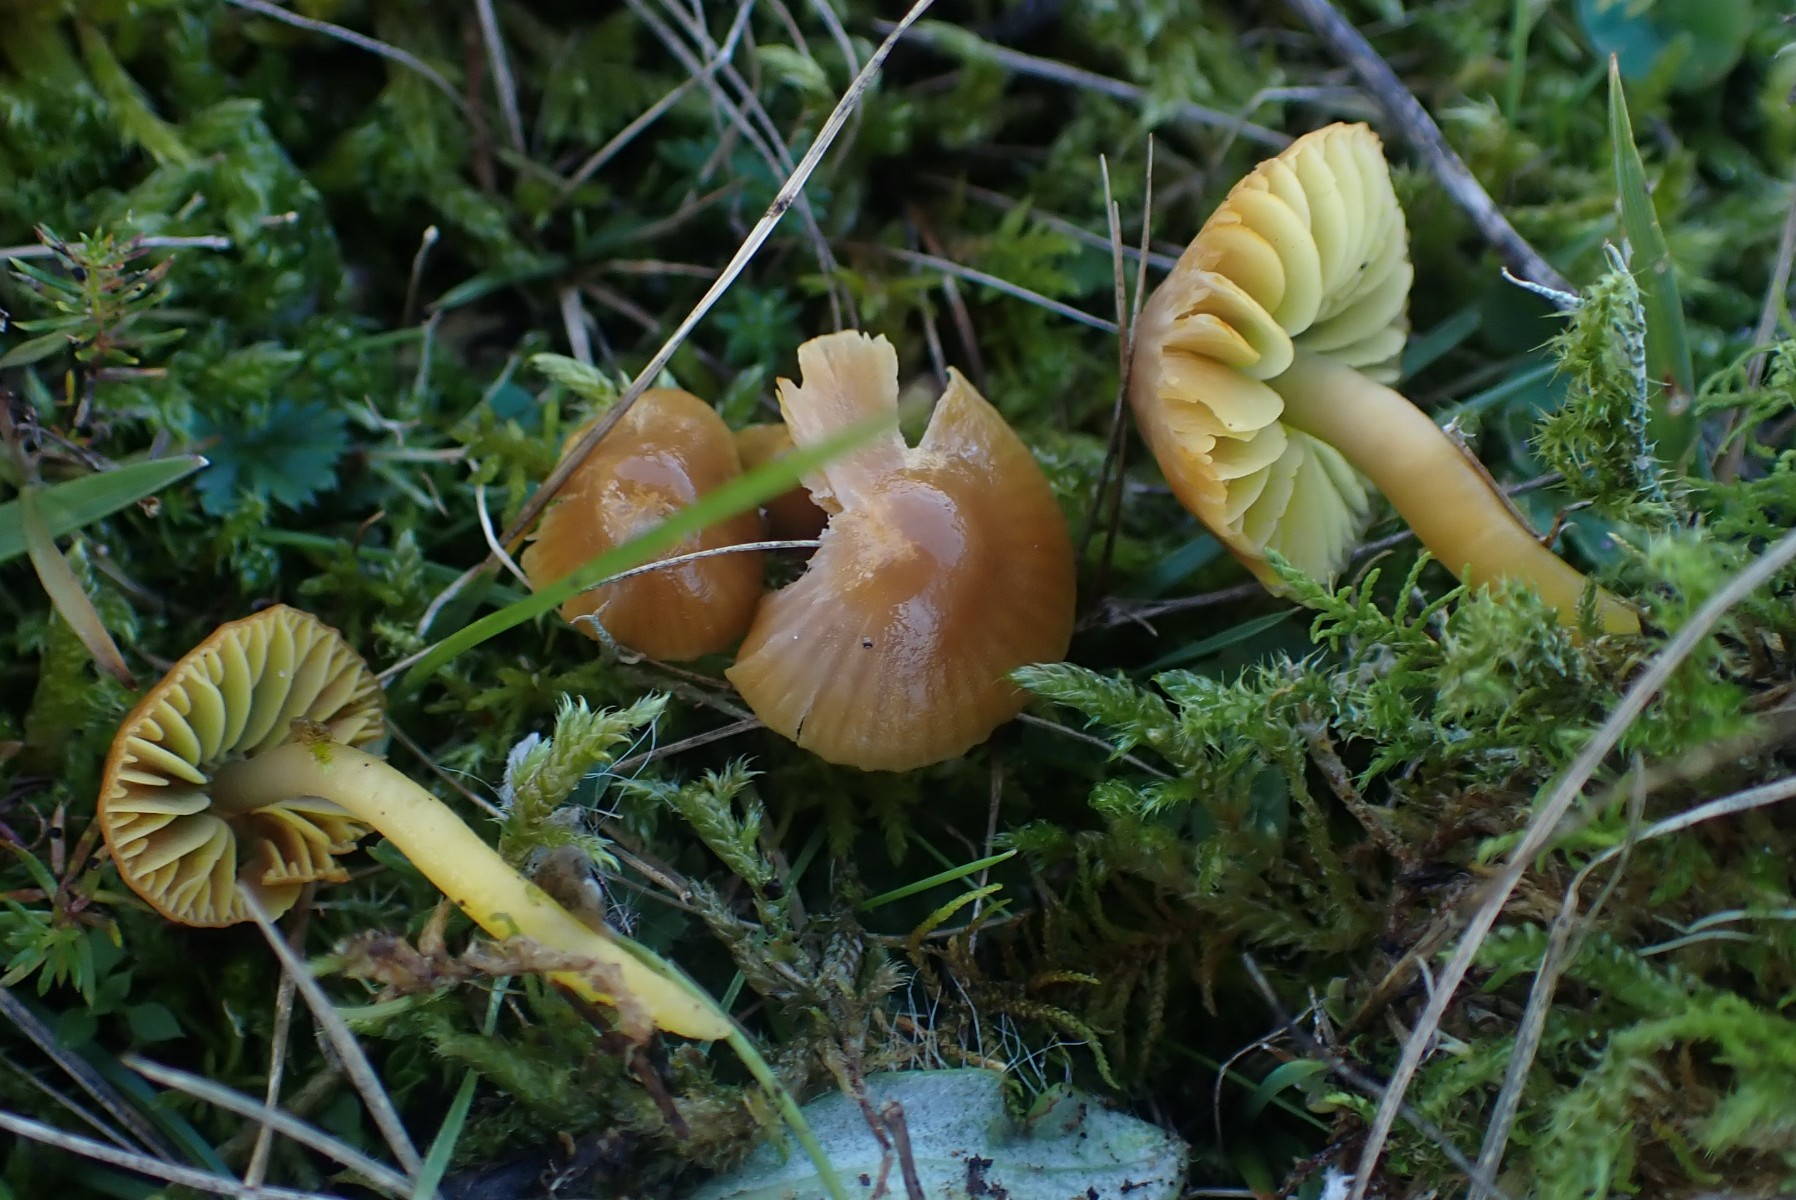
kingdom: Fungi
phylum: Basidiomycota
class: Agaricomycetes
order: Agaricales
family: Hygrophoraceae
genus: Gliophorus
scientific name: Gliophorus psittacinus
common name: papegøje-vokshat
